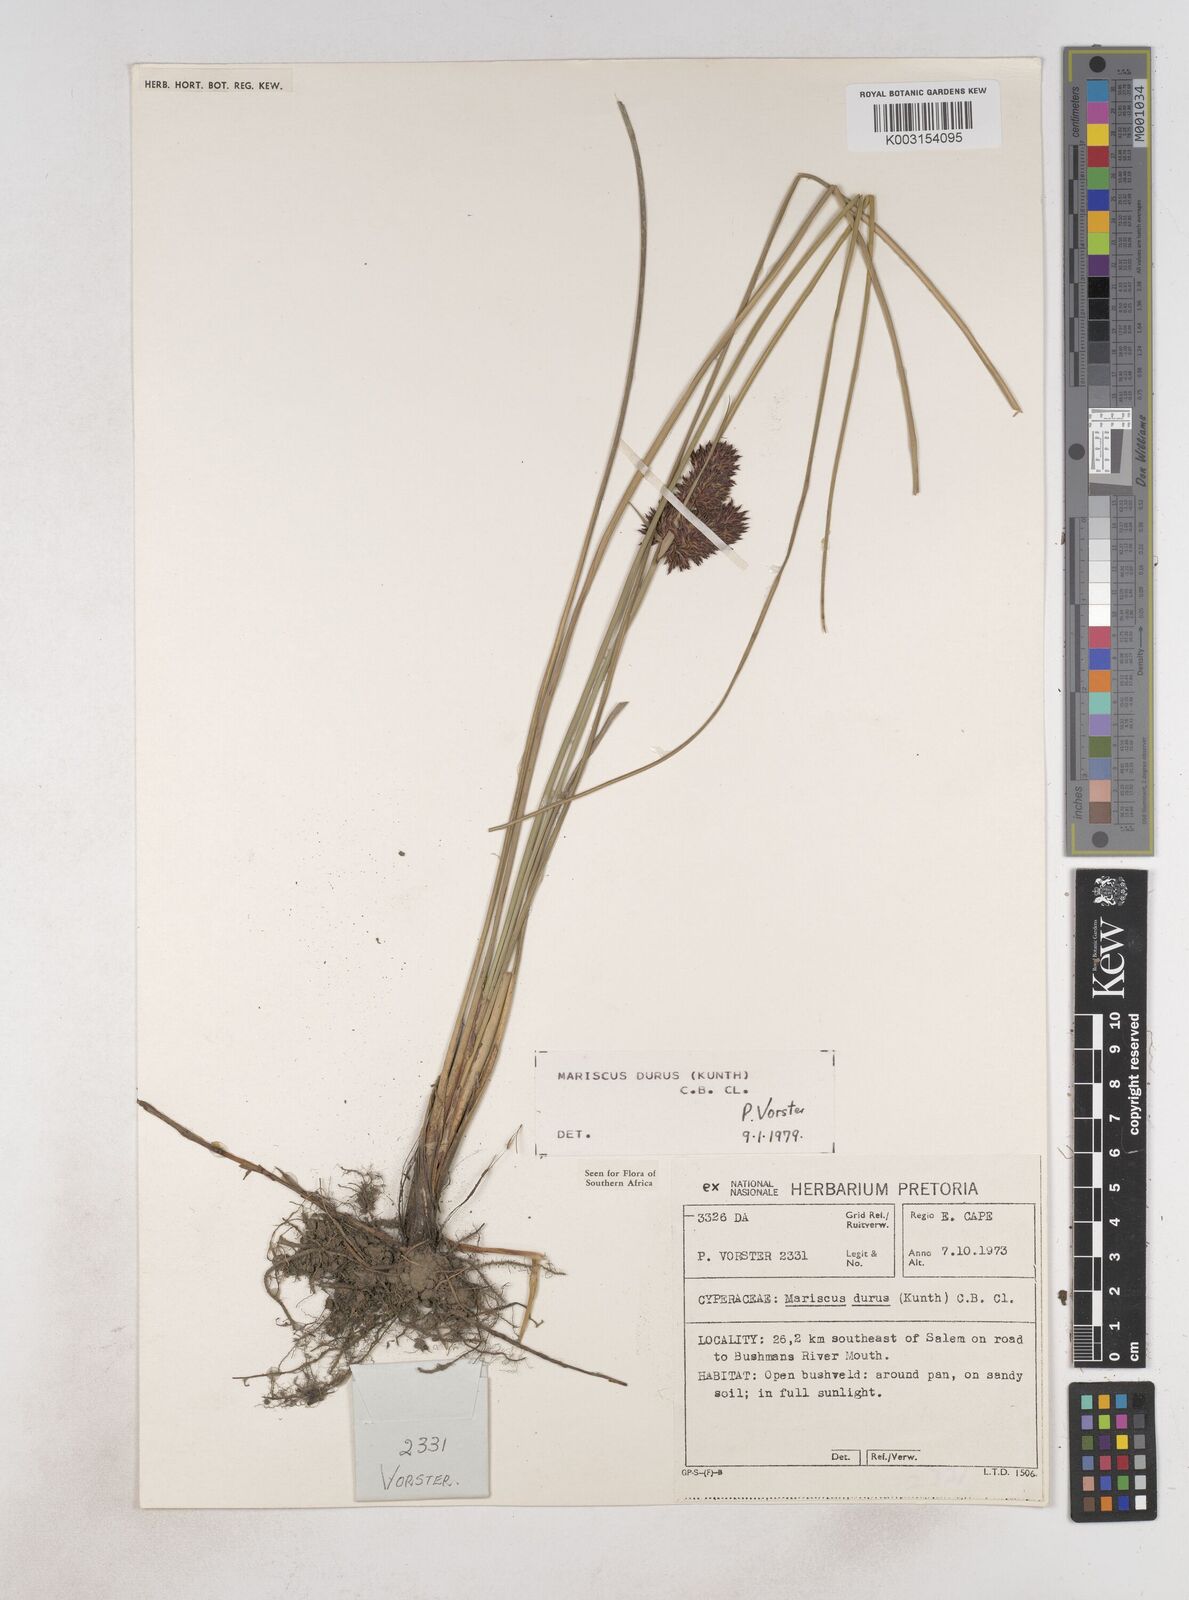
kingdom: Plantae
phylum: Tracheophyta
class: Liliopsida
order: Poales
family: Cyperaceae
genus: Cyperus
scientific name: Cyperus durus
